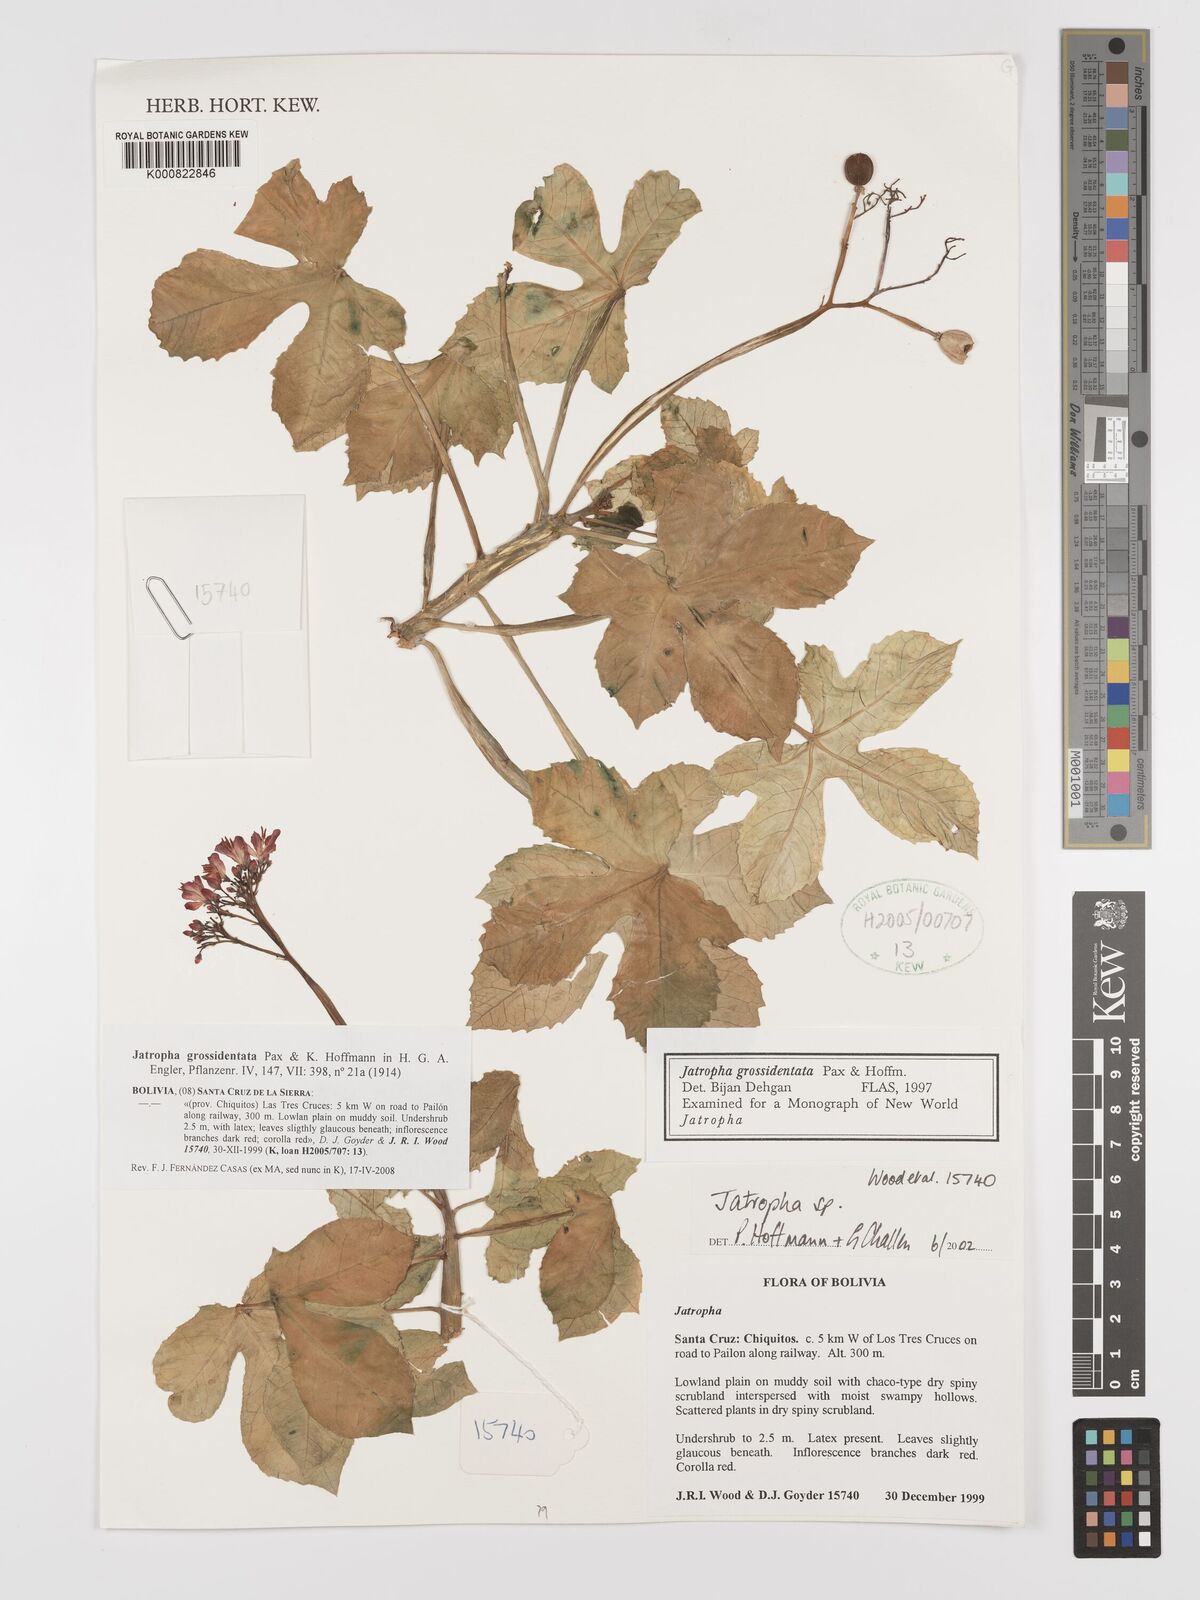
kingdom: Plantae
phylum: Tracheophyta
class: Magnoliopsida
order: Malpighiales
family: Euphorbiaceae
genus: Jatropha
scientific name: Jatropha grossidentata
